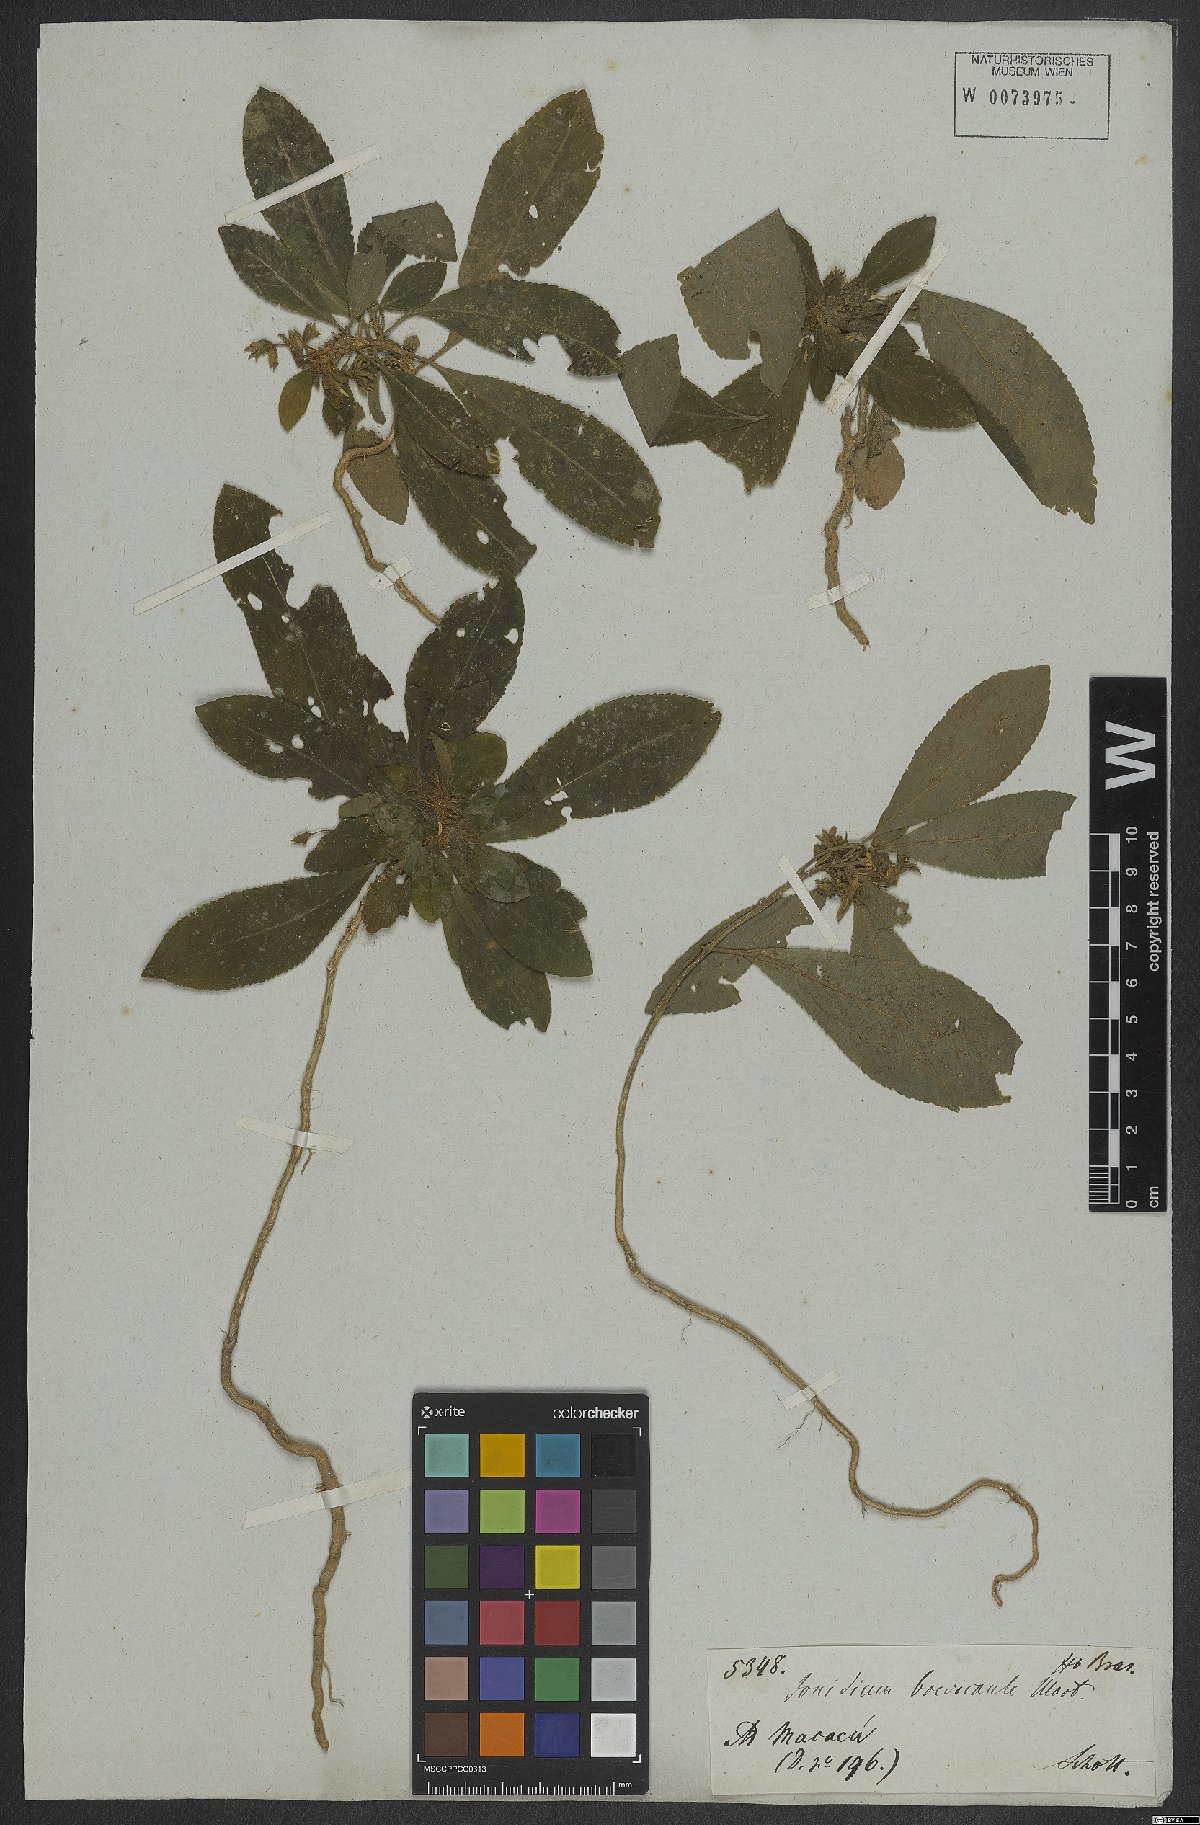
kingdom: Plantae
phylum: Tracheophyta
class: Magnoliopsida
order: Malpighiales
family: Violaceae
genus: Pombalia
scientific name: Pombalia brevicaulis
